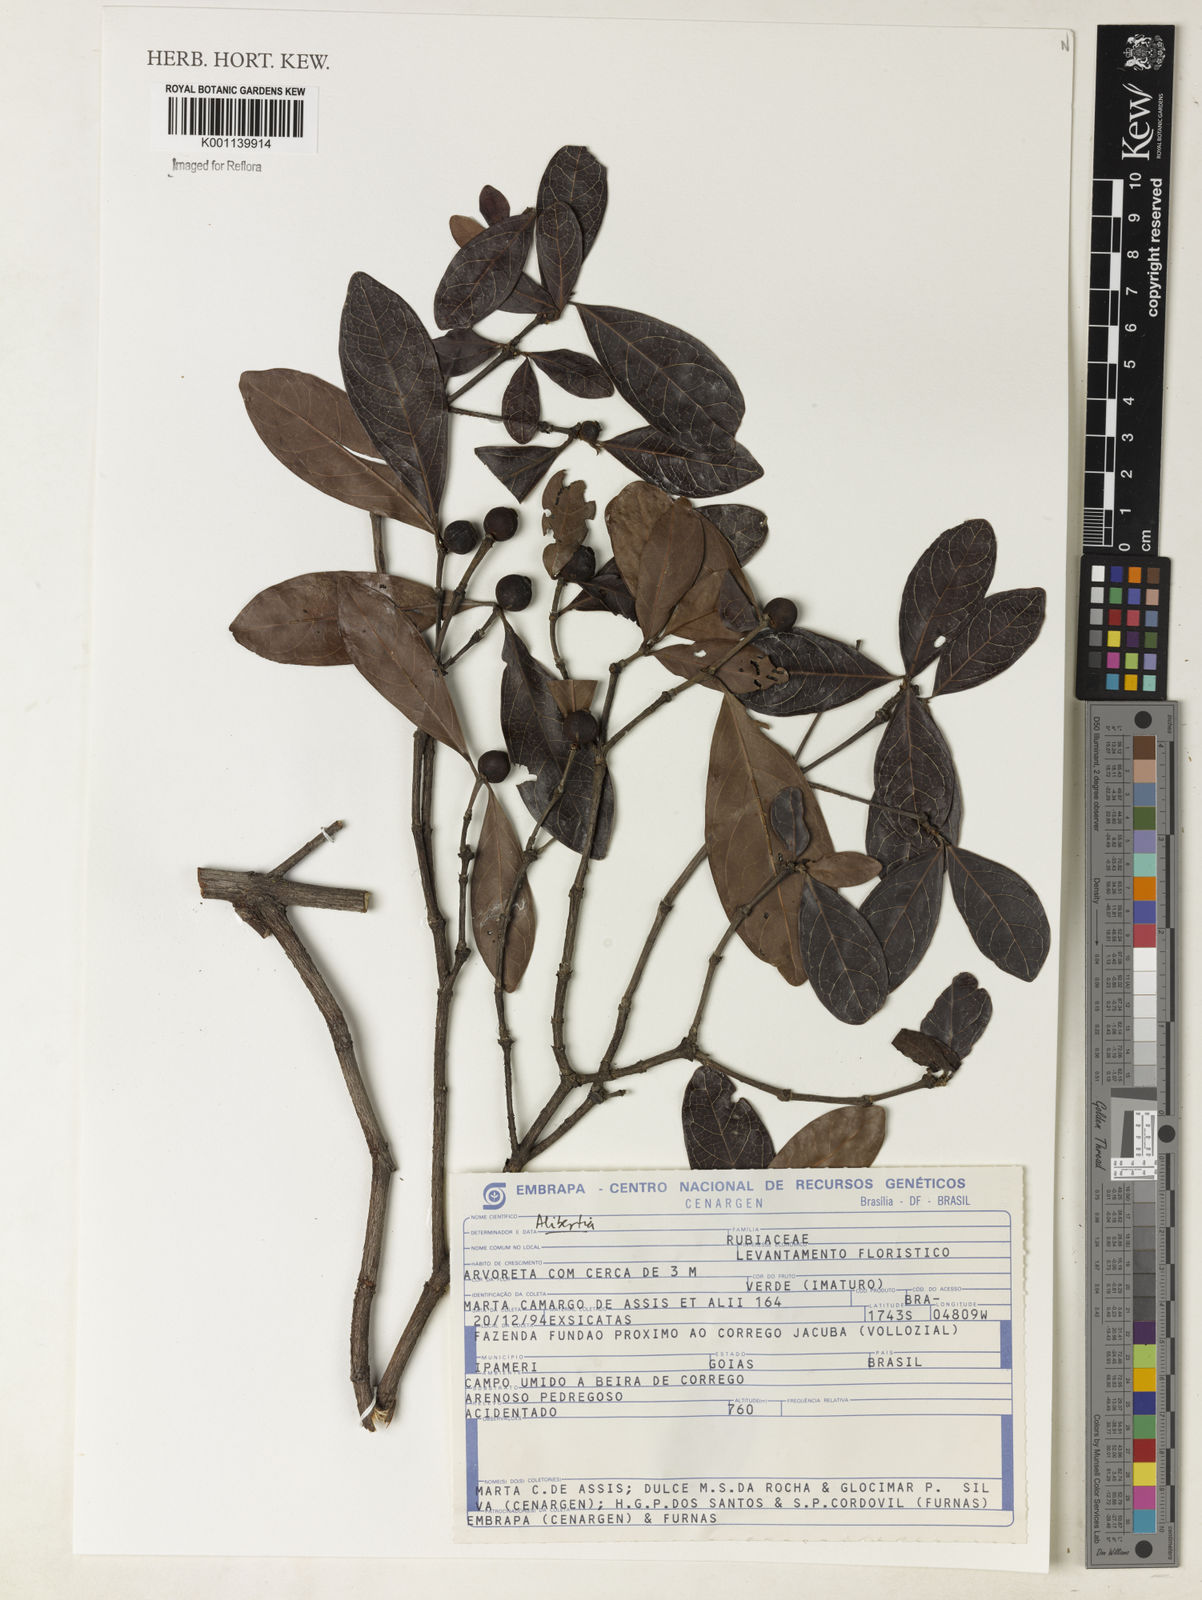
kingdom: Plantae
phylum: Tracheophyta
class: Magnoliopsida
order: Gentianales
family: Rubiaceae
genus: Alibertia
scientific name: Alibertia
